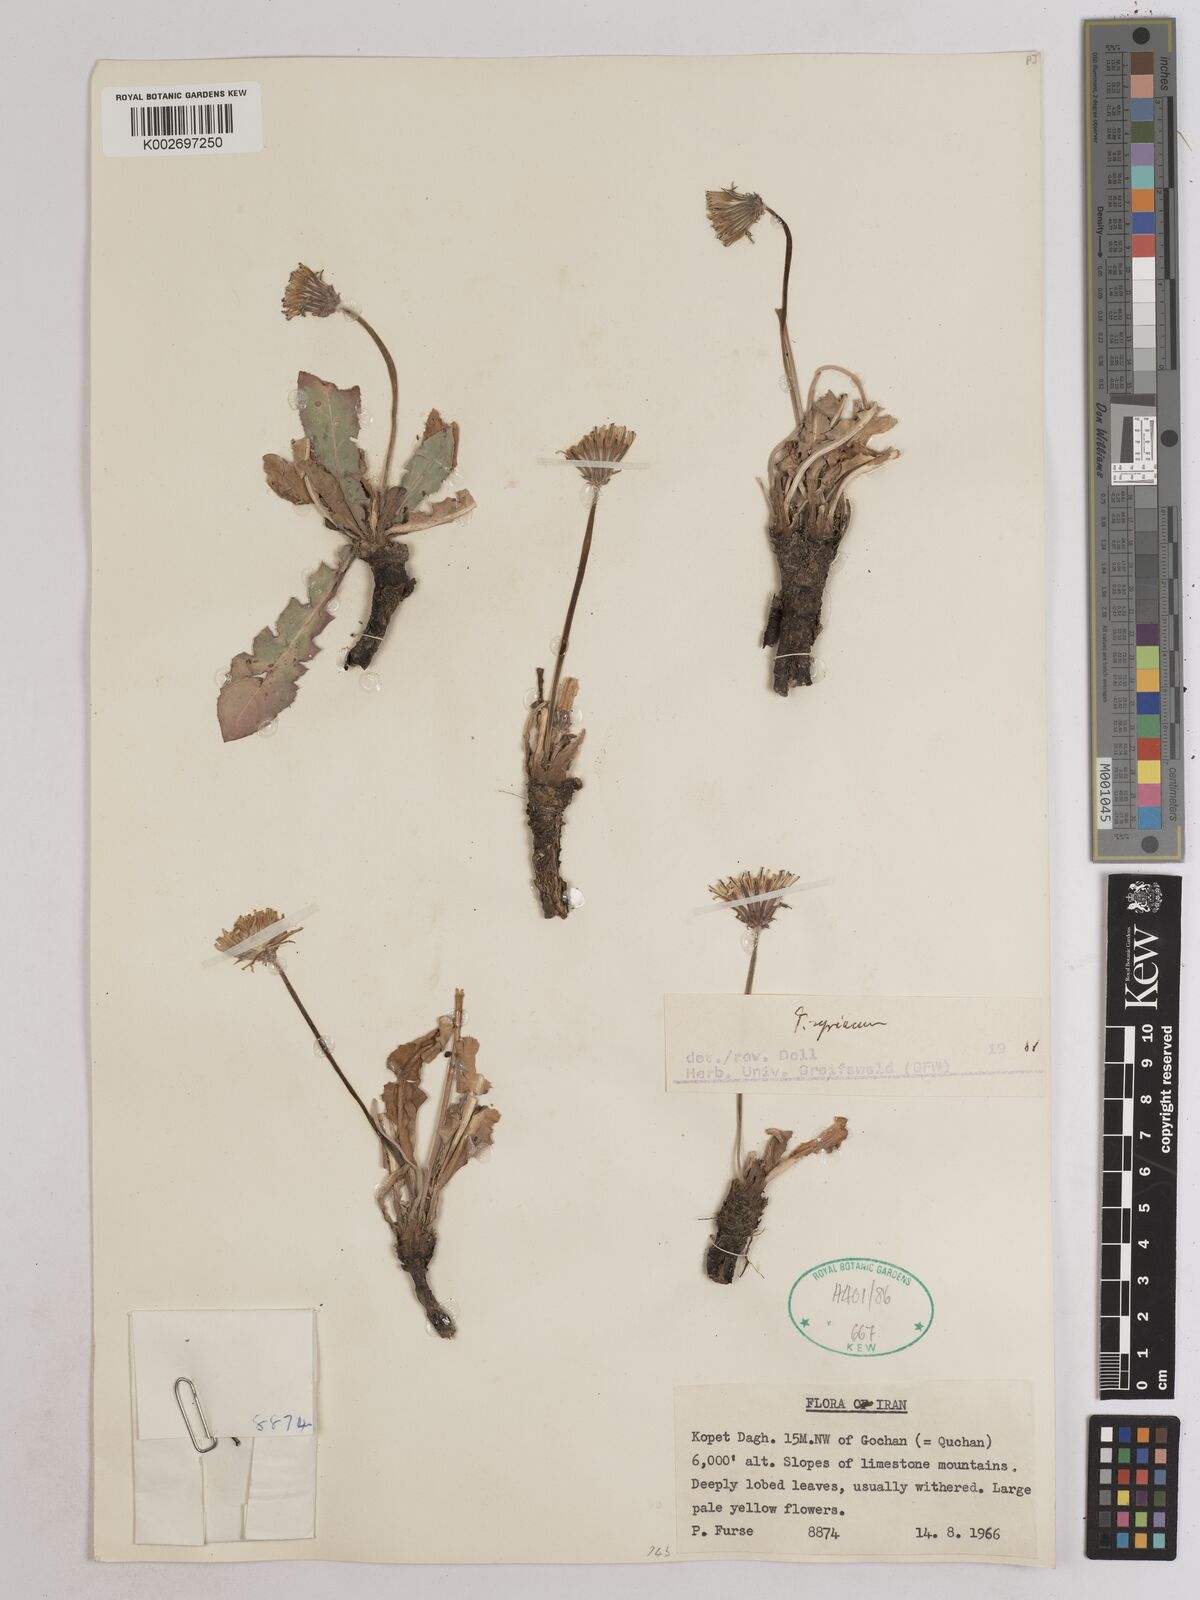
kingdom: Plantae
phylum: Tracheophyta
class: Magnoliopsida
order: Asterales
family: Asteraceae
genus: Taraxacum
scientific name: Taraxacum syriacum
